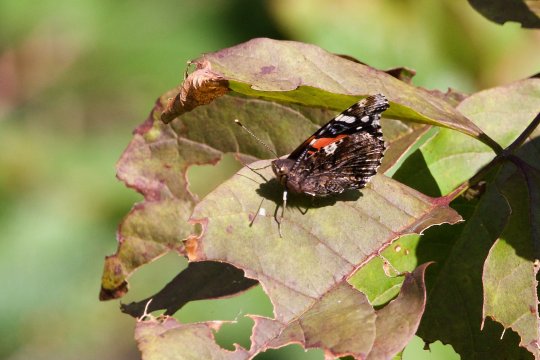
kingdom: Animalia
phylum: Arthropoda
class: Insecta
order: Lepidoptera
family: Nymphalidae
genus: Vanessa
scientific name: Vanessa atalanta
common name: Red Admiral
